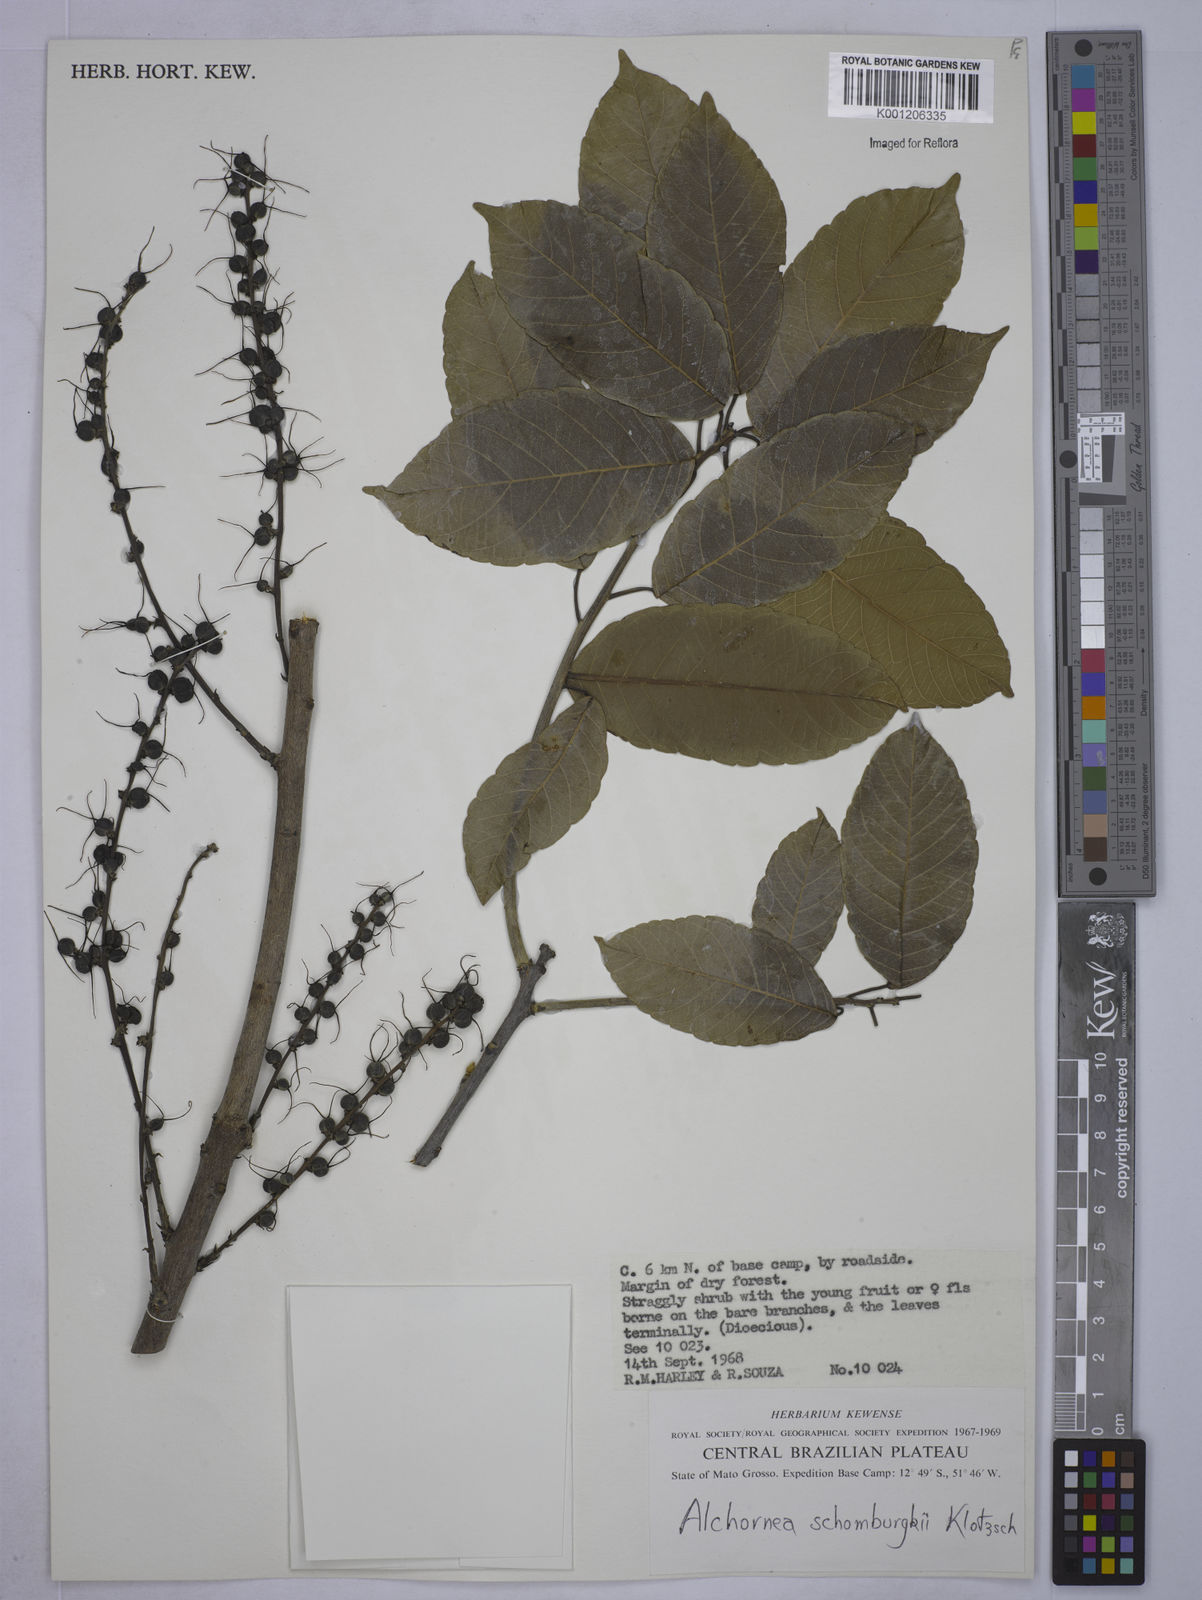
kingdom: Plantae
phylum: Tracheophyta
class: Magnoliopsida
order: Malpighiales
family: Euphorbiaceae
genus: Alchornea
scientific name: Alchornea discolor
